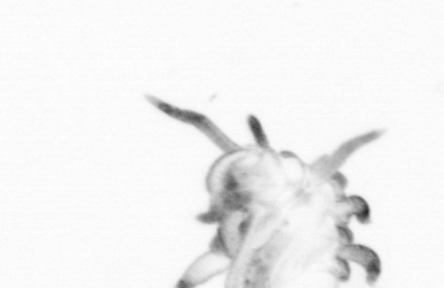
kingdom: Animalia
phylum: Annelida
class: Polychaeta
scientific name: Polychaeta
